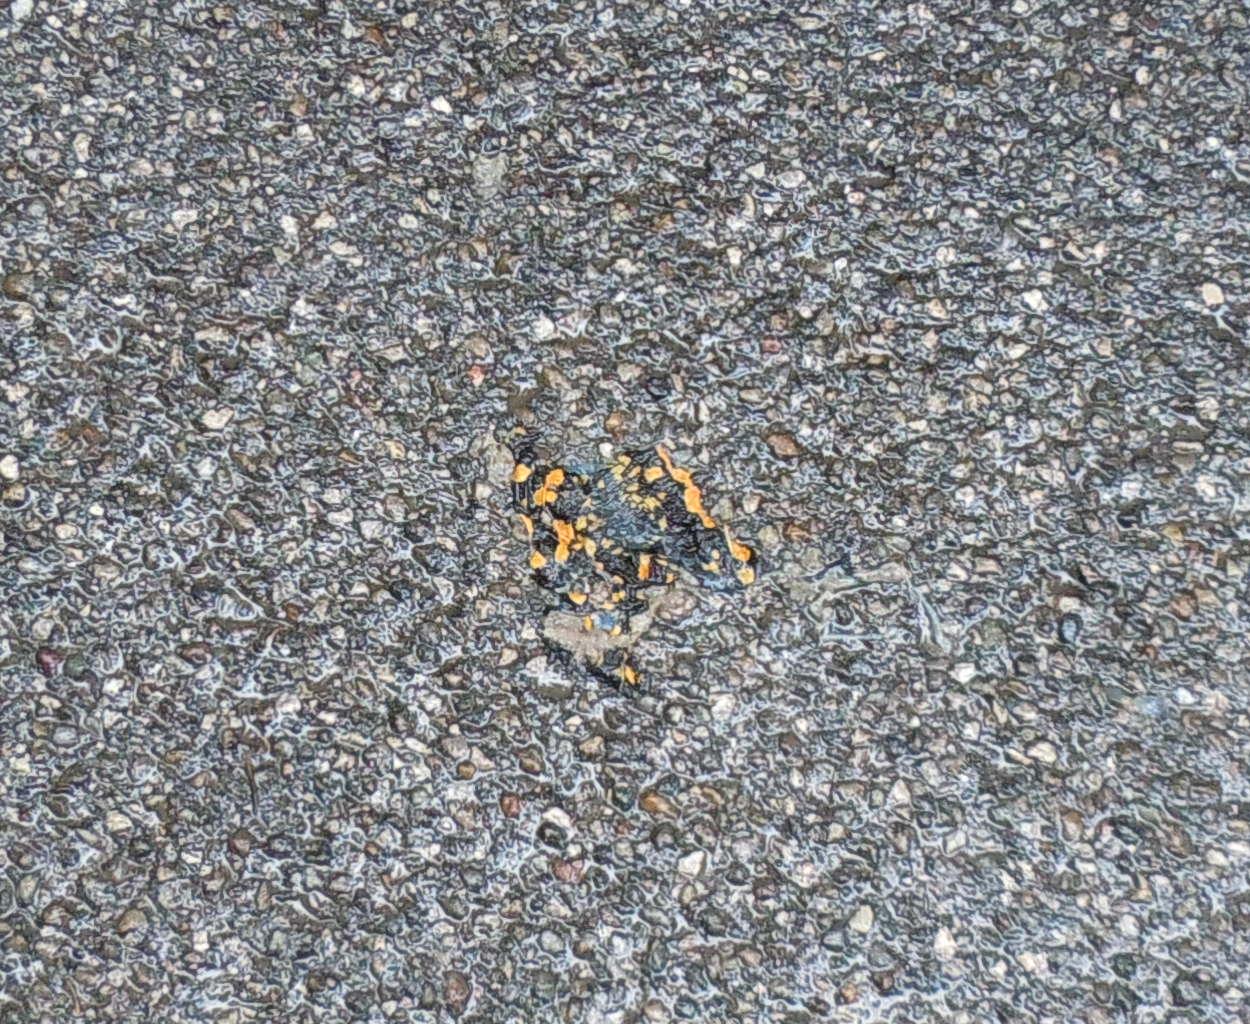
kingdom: Animalia
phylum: Chordata
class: Amphibia
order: Caudata
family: Salamandridae
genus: Salamandra
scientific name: Salamandra salamandra
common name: Fire salamander
